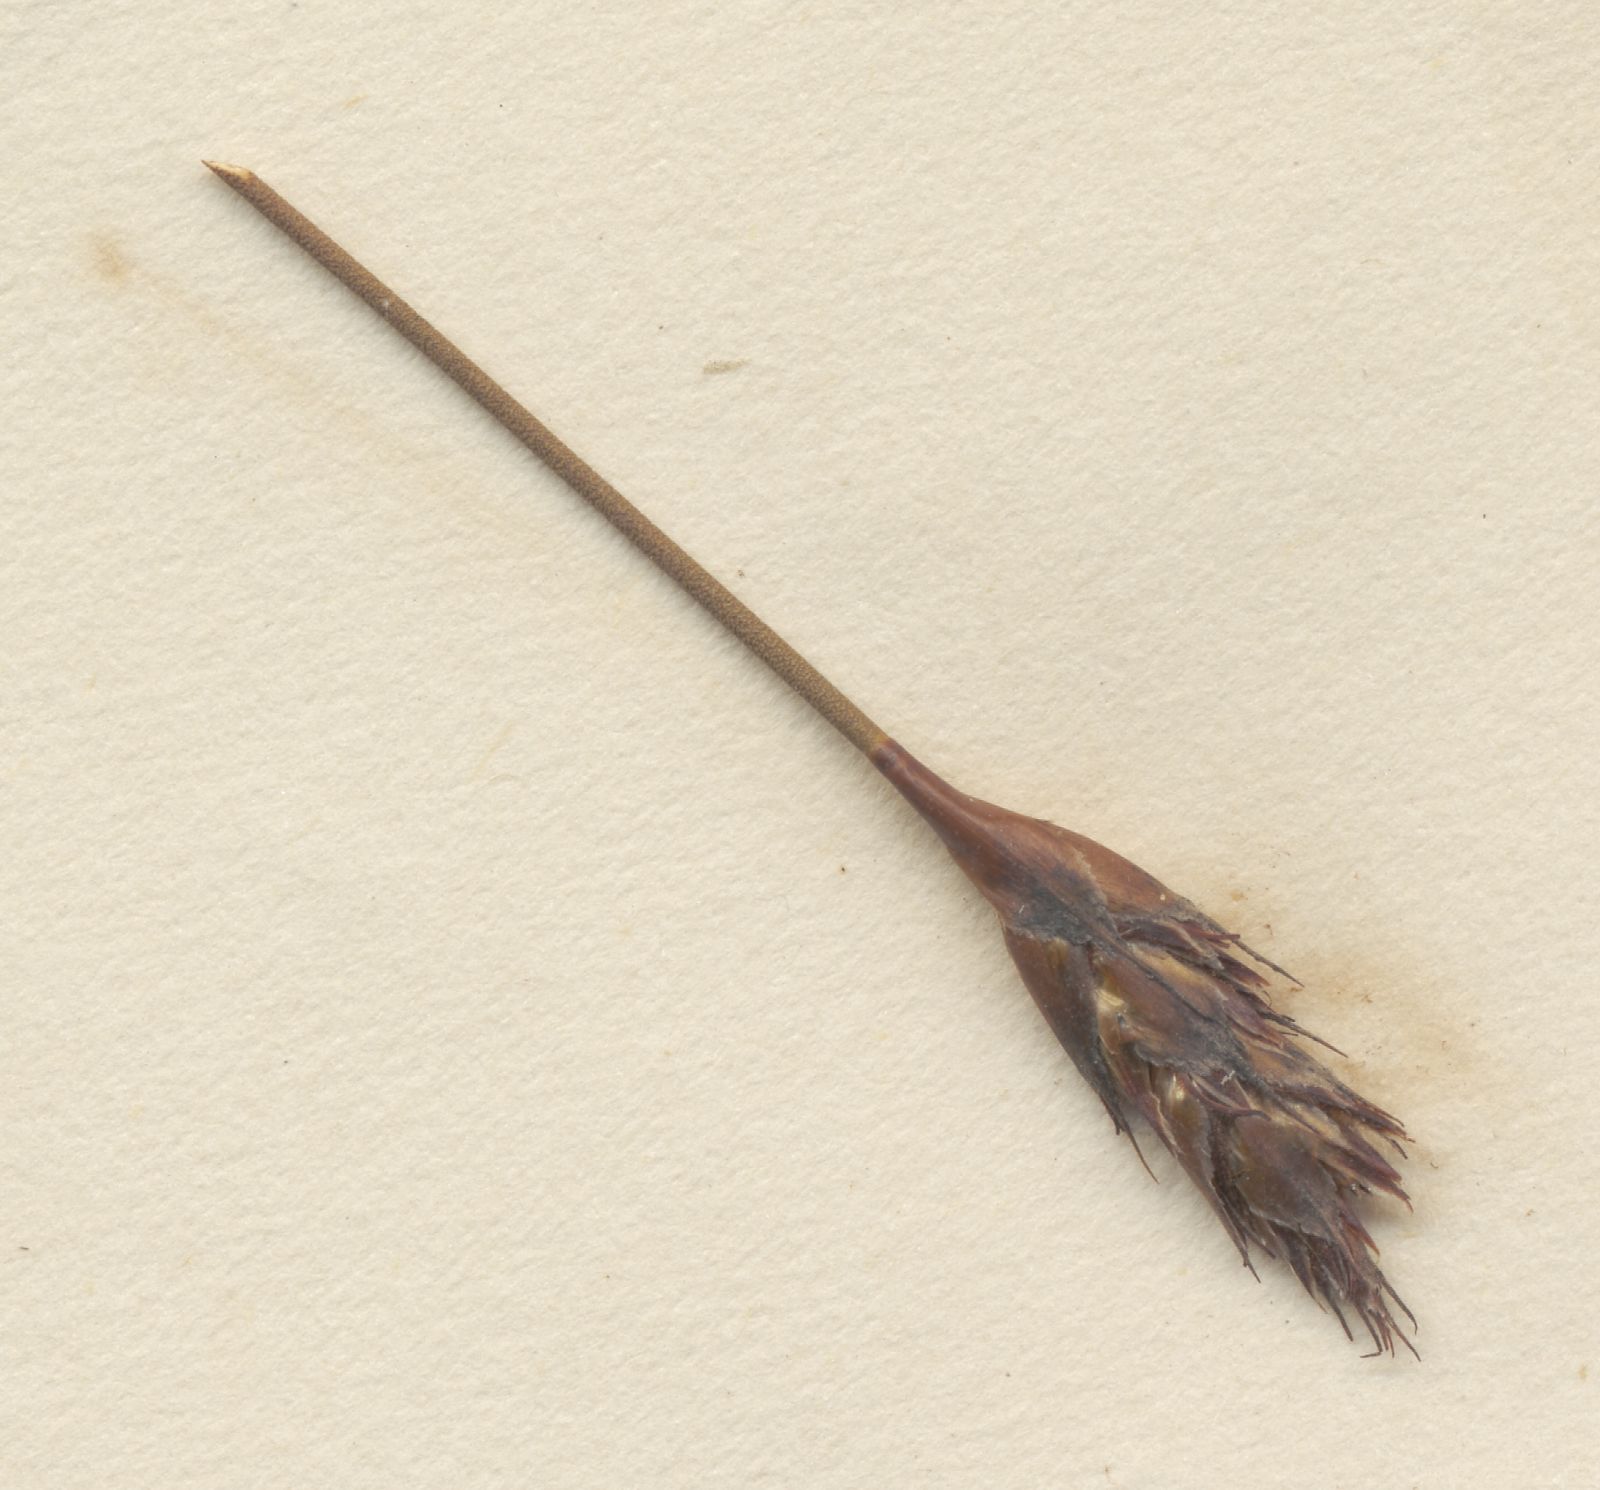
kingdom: Plantae
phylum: Tracheophyta
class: Liliopsida
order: Poales
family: Restionaceae
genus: Restio
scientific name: Restio gossypinus
